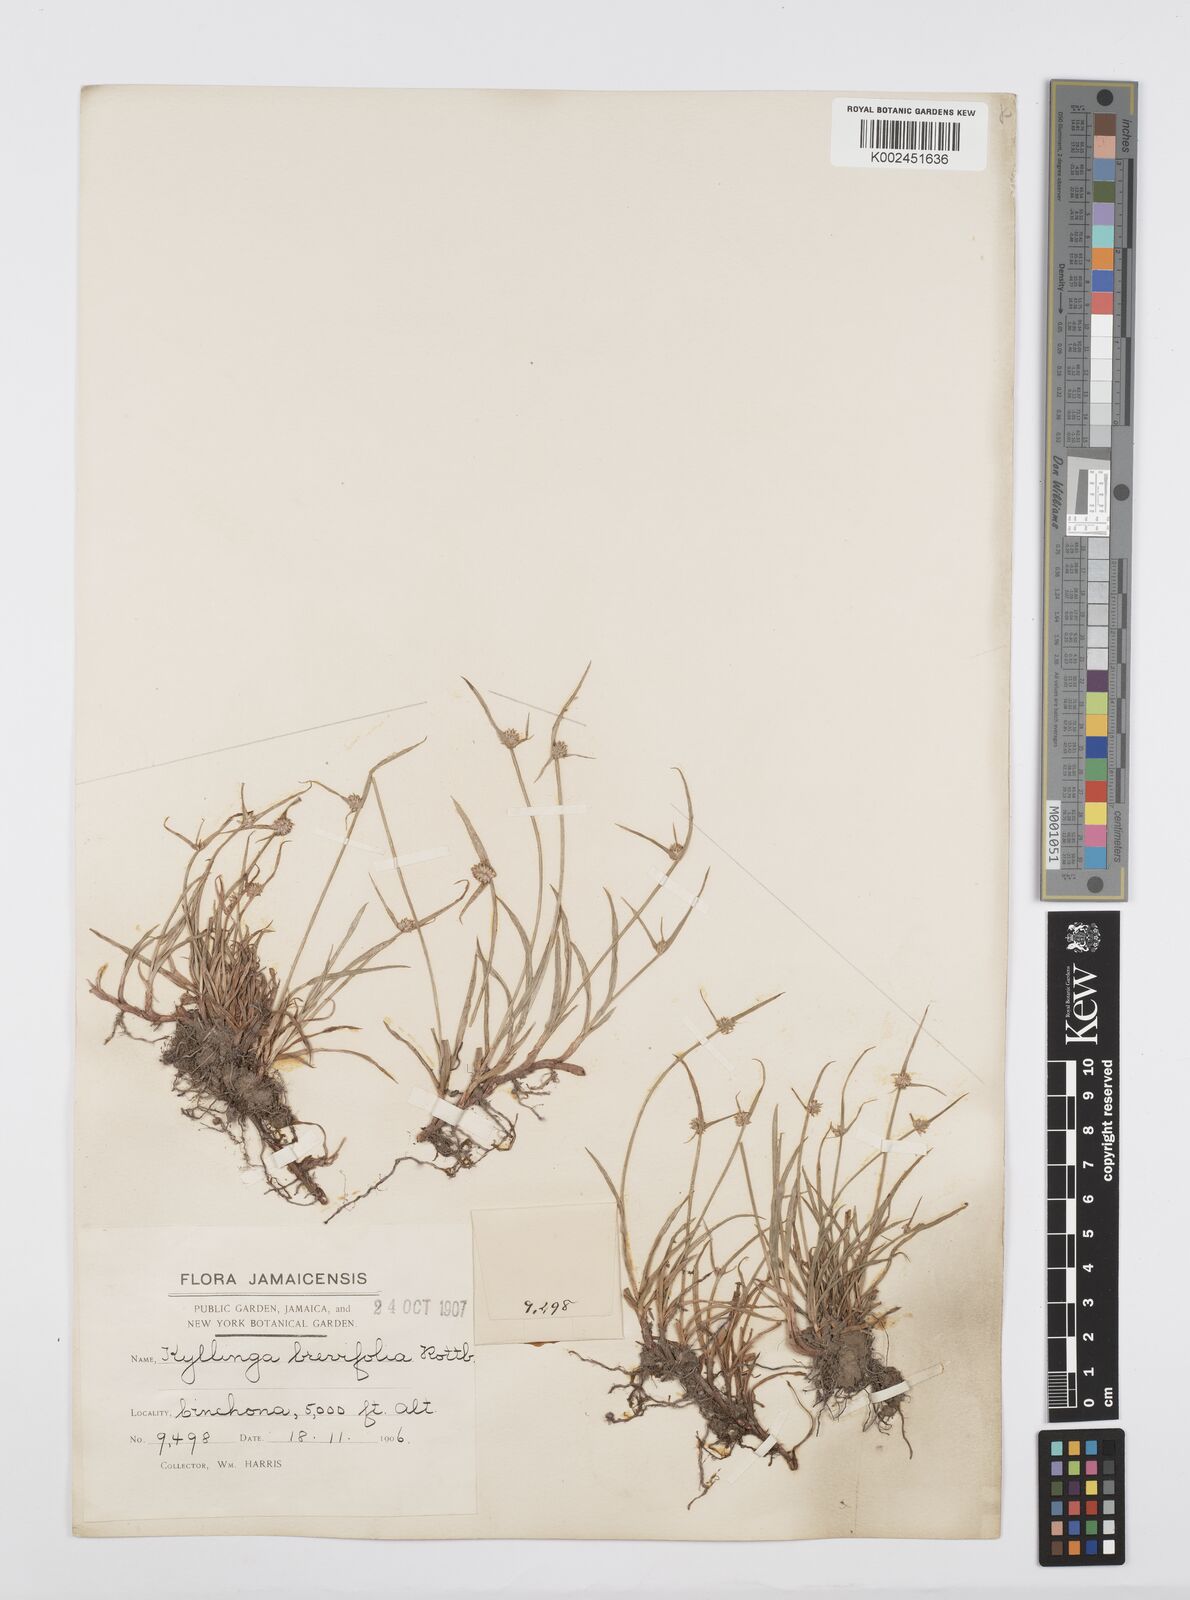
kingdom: Plantae
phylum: Tracheophyta
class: Liliopsida
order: Poales
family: Cyperaceae
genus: Cyperus
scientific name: Cyperus brevifolius
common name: Globe kyllinga
